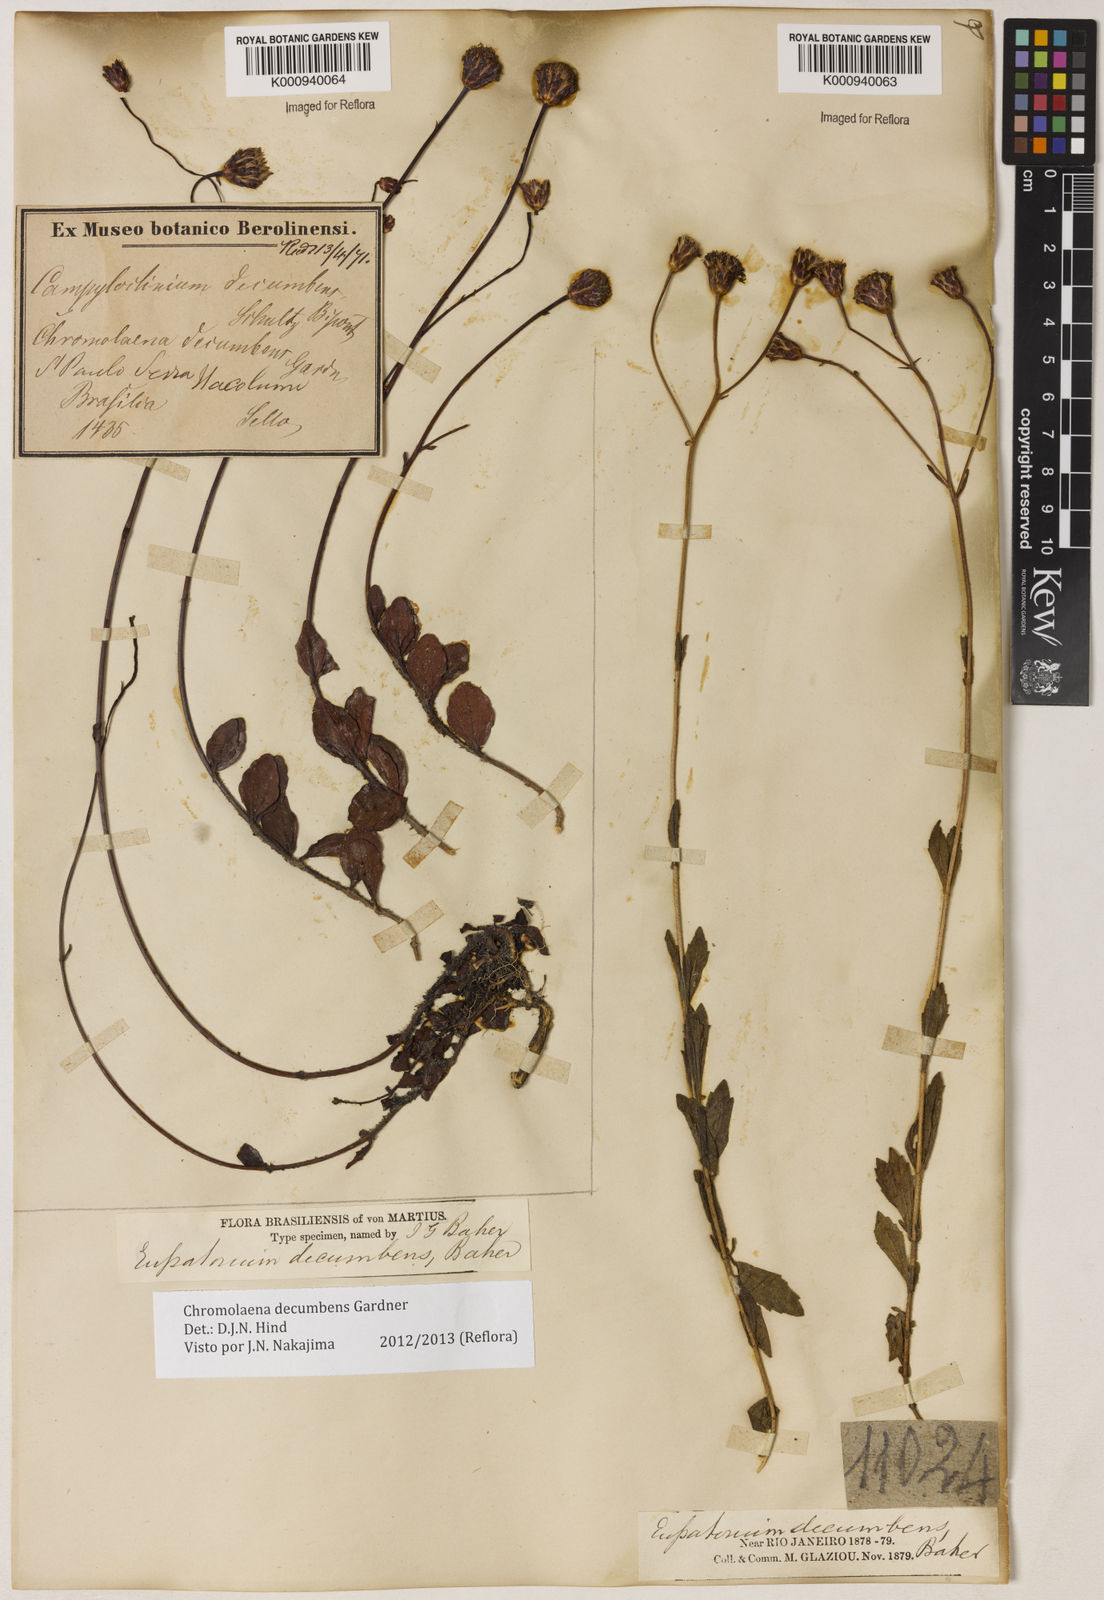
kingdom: Plantae
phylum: Tracheophyta
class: Magnoliopsida
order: Asterales
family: Asteraceae
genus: Praxelis
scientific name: Praxelis decumbens
